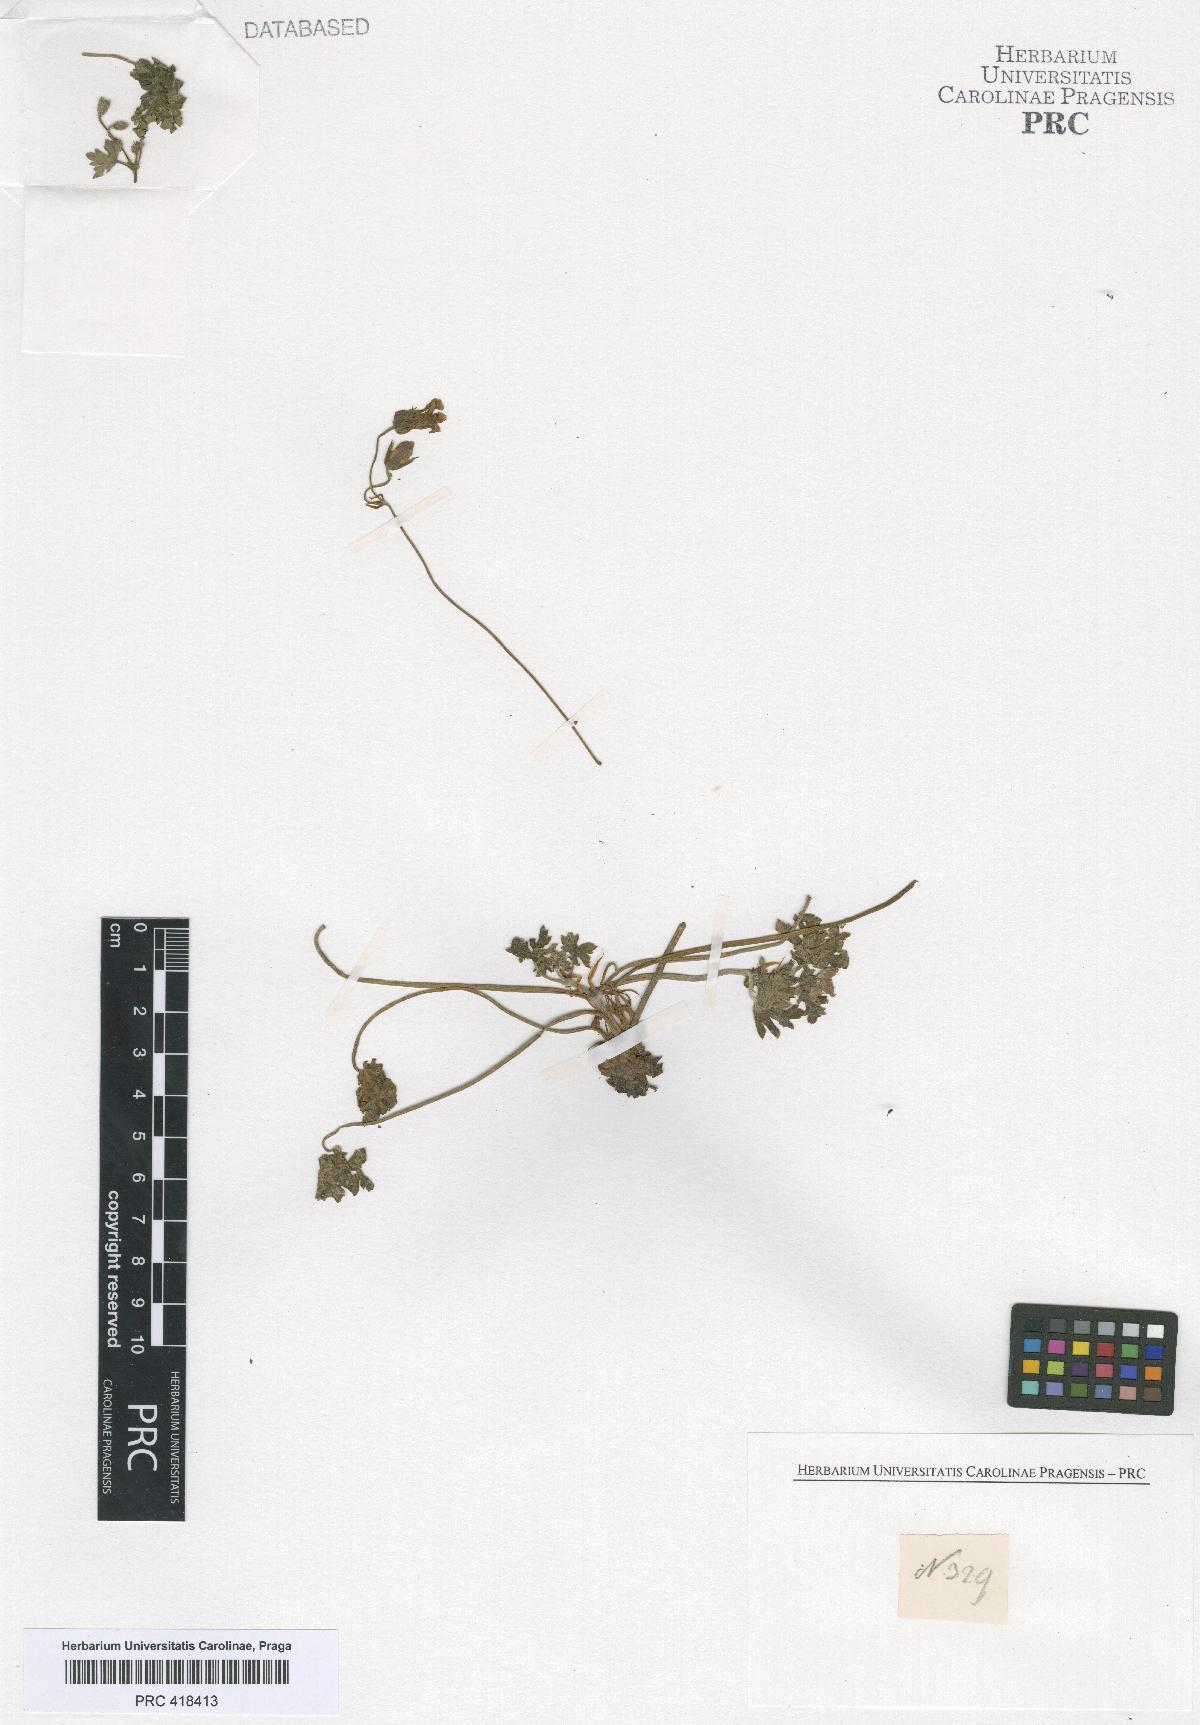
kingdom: Plantae
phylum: Tracheophyta
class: Magnoliopsida
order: Geraniales
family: Geraniaceae
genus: Geranium
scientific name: Geranium
